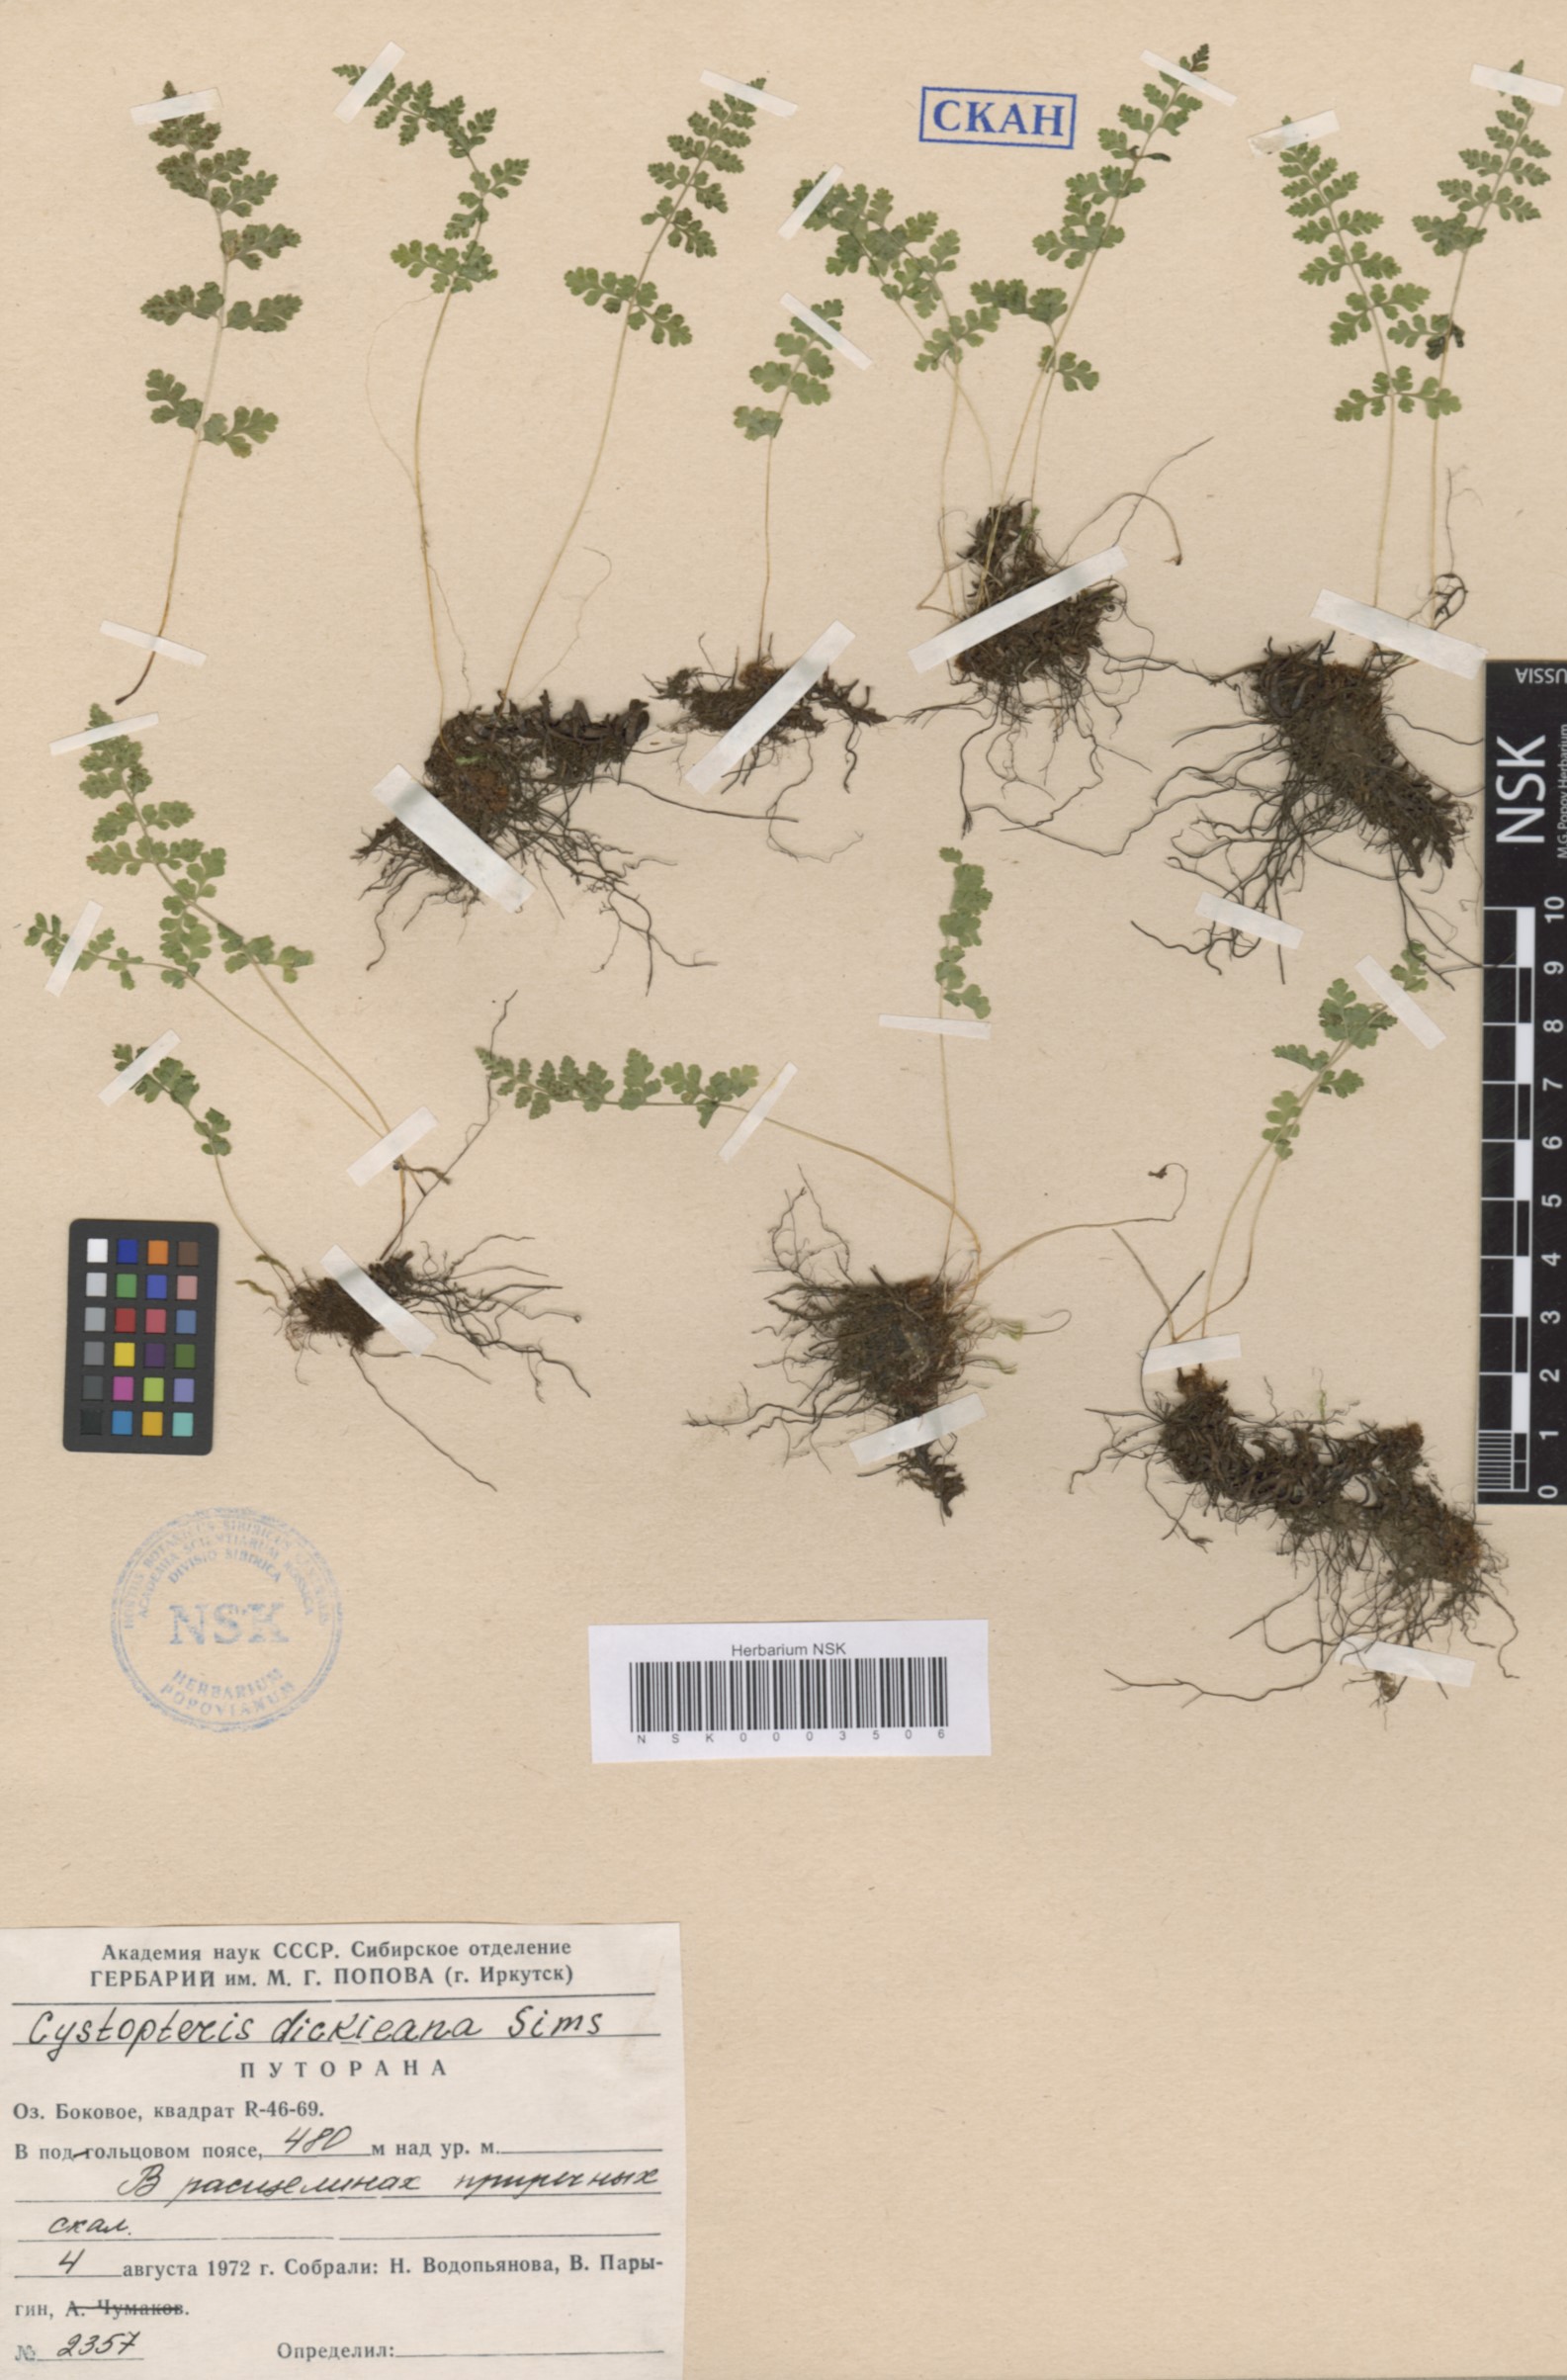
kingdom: Plantae
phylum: Tracheophyta
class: Polypodiopsida
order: Polypodiales
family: Cystopteridaceae
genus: Cystopteris
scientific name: Cystopteris dickieana
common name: Dickie's bladder-fern
